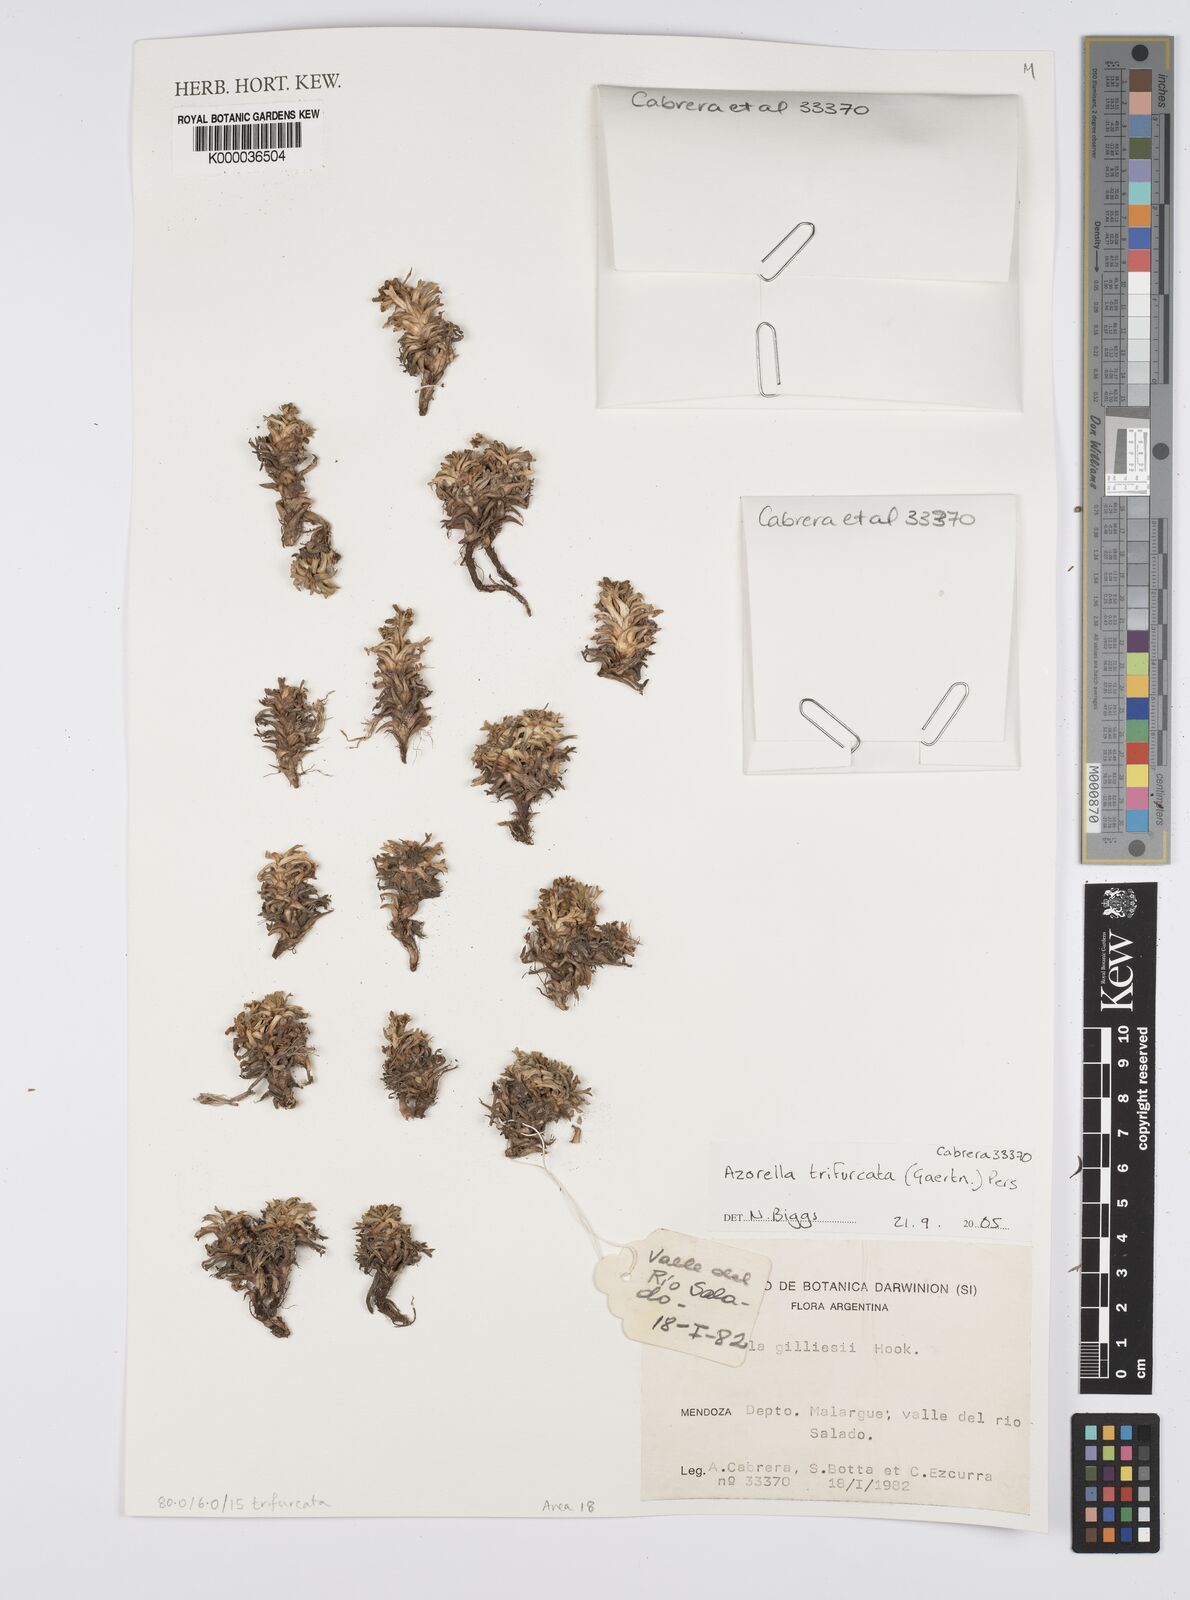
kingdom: Plantae
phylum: Tracheophyta
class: Magnoliopsida
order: Apiales
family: Apiaceae
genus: Azorella
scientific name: Azorella trifurcata
